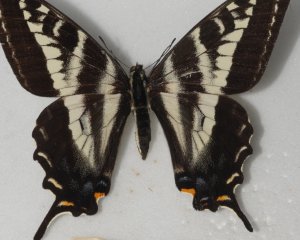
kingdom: Animalia
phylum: Arthropoda
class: Insecta
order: Lepidoptera
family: Papilionidae
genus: Pterourus
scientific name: Pterourus eurymedon
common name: Pale Swallowtail
